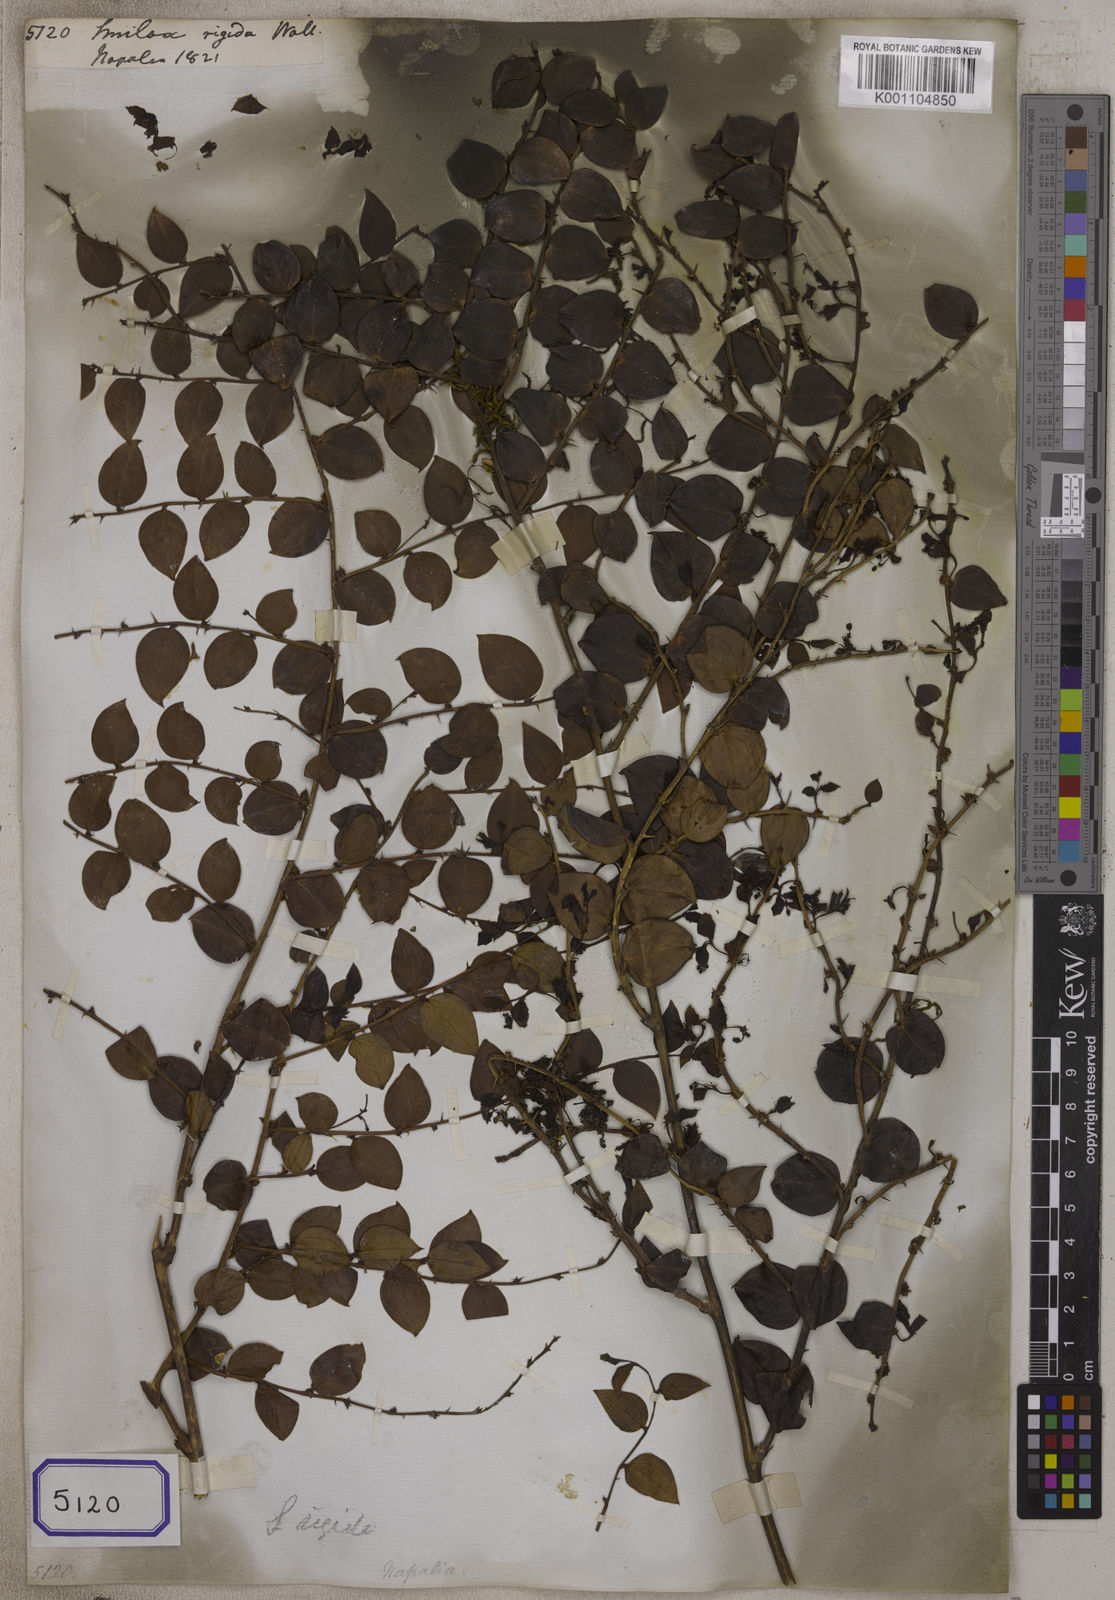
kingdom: Plantae
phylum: Tracheophyta
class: Liliopsida
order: Liliales
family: Smilacaceae
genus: Smilax
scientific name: Smilax
